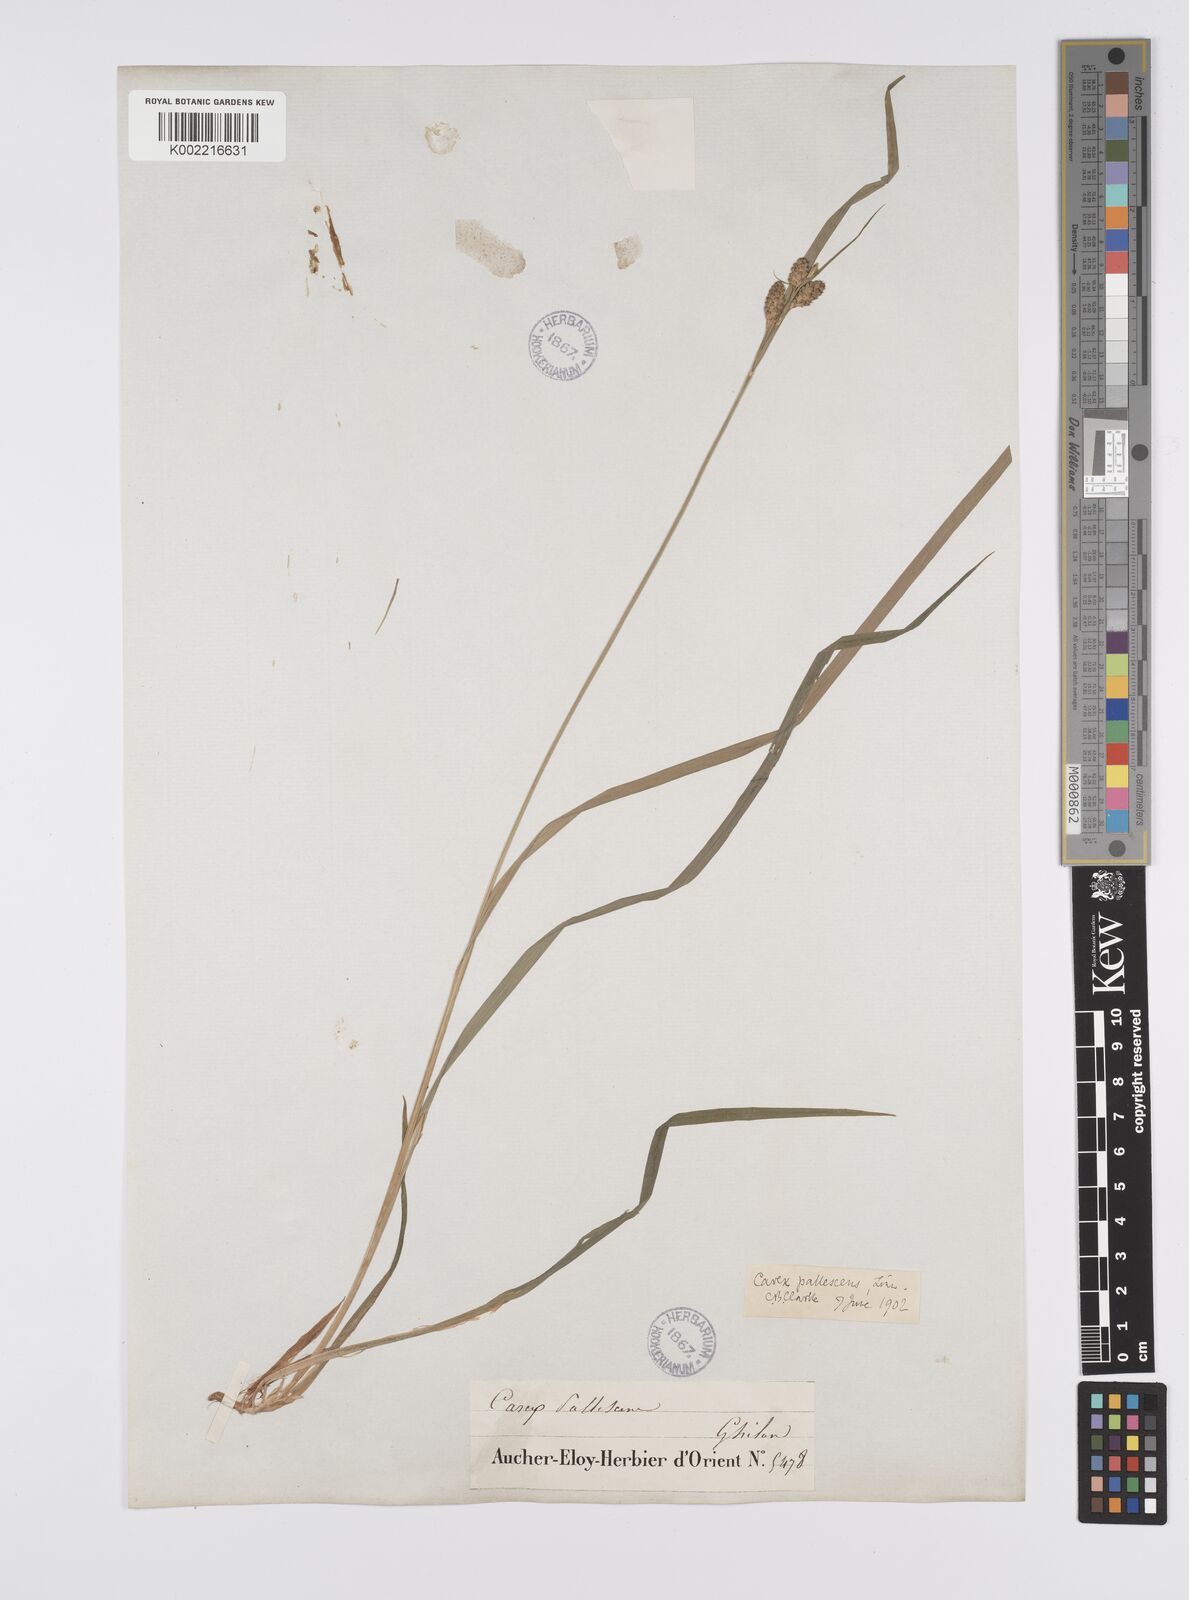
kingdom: Plantae
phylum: Tracheophyta
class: Liliopsida
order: Poales
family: Cyperaceae
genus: Carex
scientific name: Carex pallescens
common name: Pale sedge
